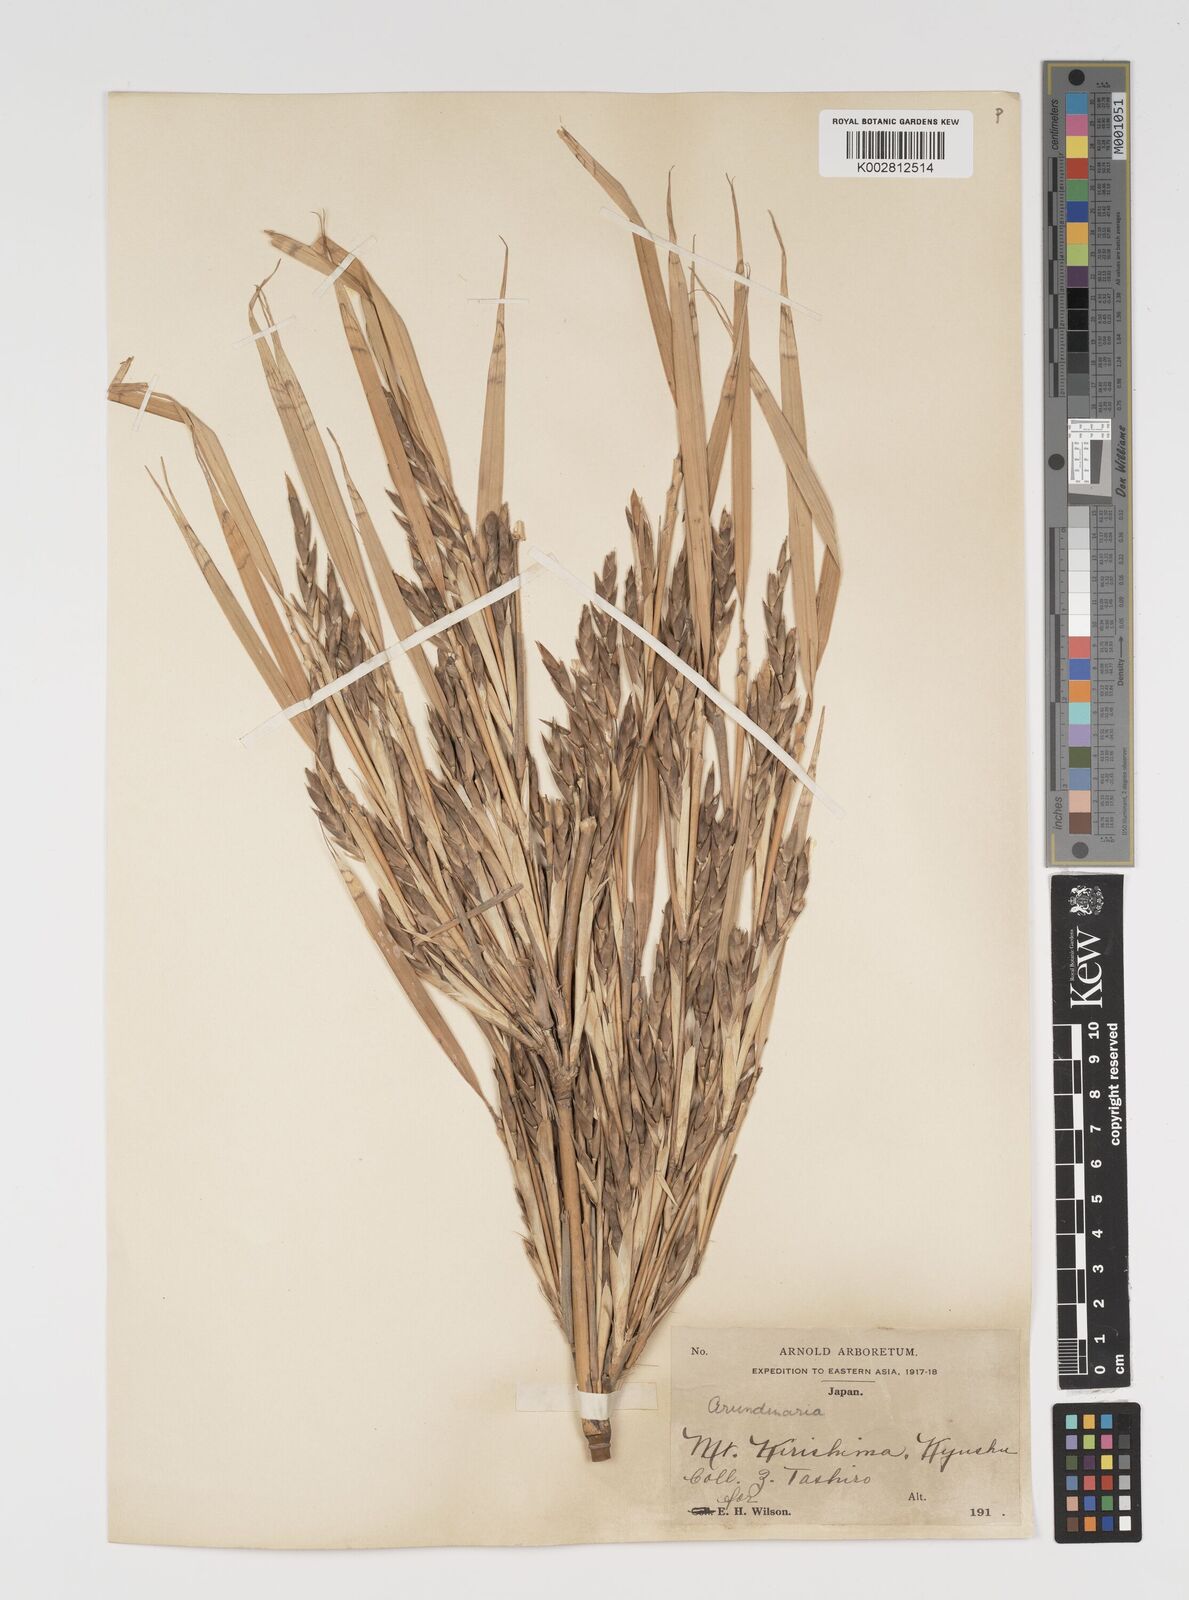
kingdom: Plantae
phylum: Tracheophyta
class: Liliopsida
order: Poales
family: Poaceae
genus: Arundinaria
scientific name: Arundinaria
